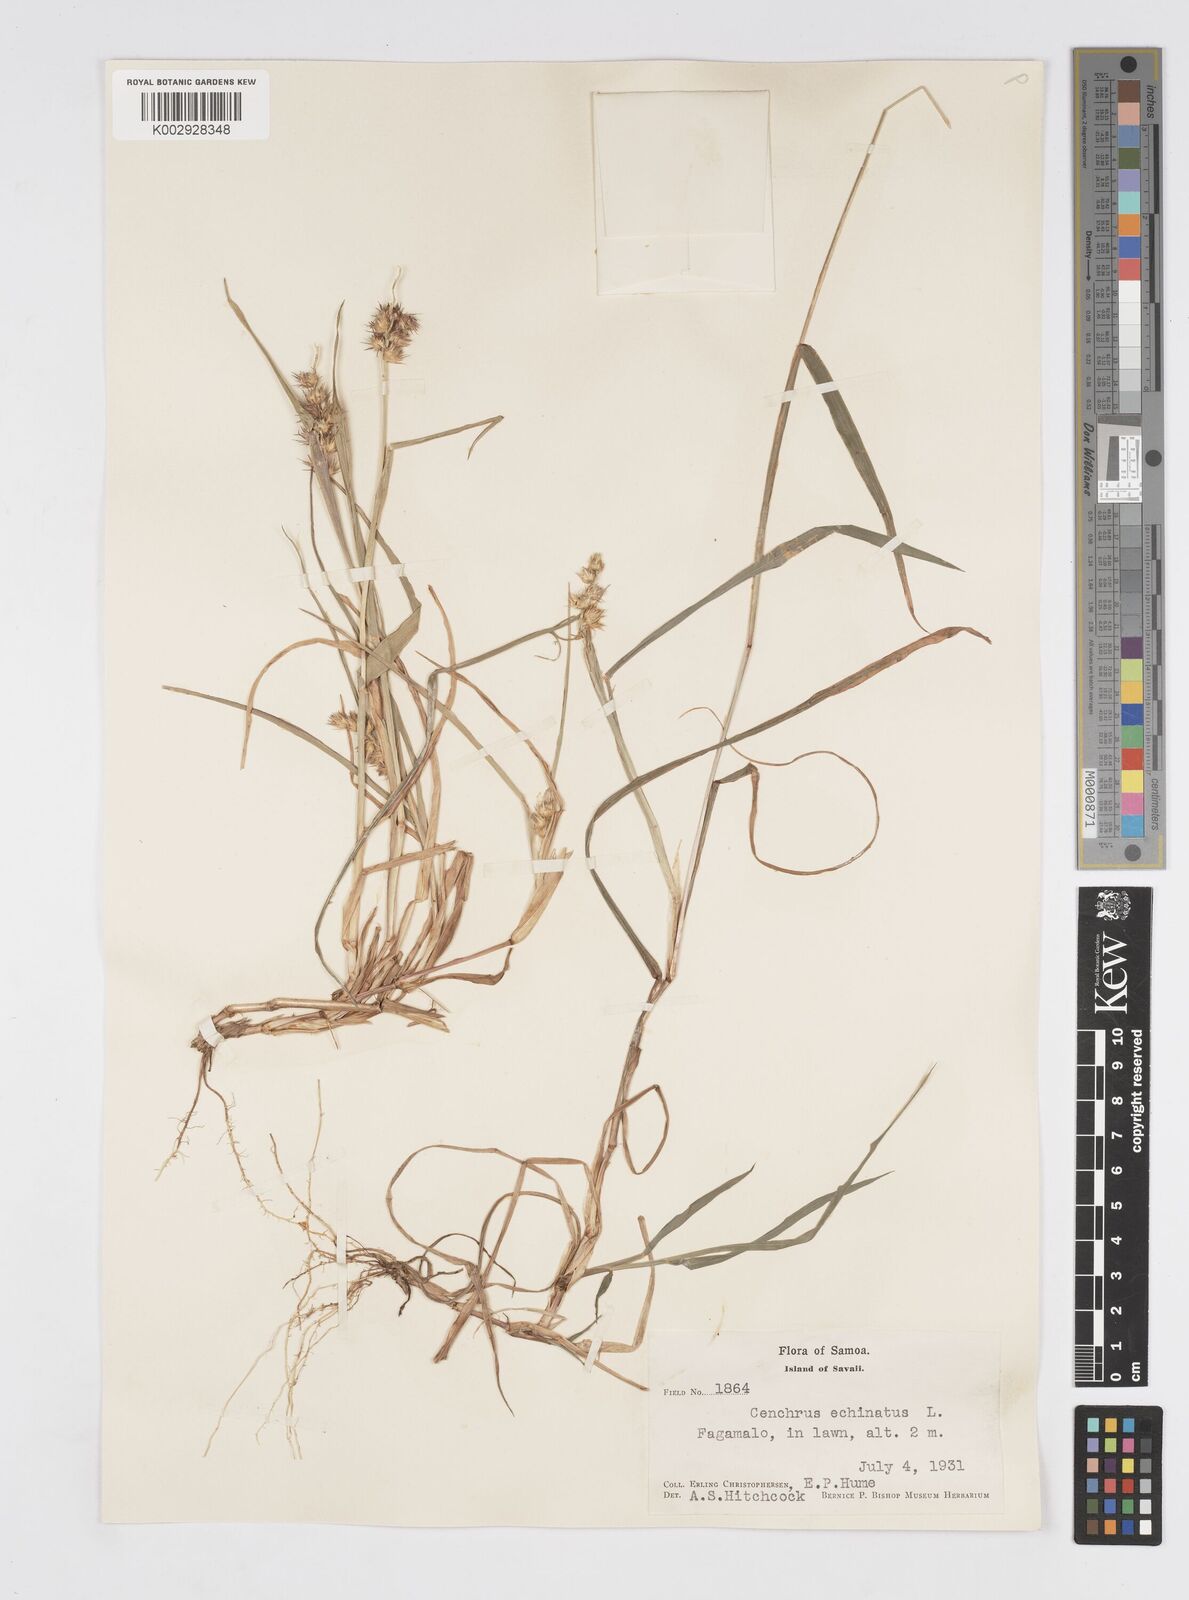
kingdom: Plantae
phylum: Tracheophyta
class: Liliopsida
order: Poales
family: Poaceae
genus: Cenchrus
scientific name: Cenchrus echinatus
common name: Southern sandbur
